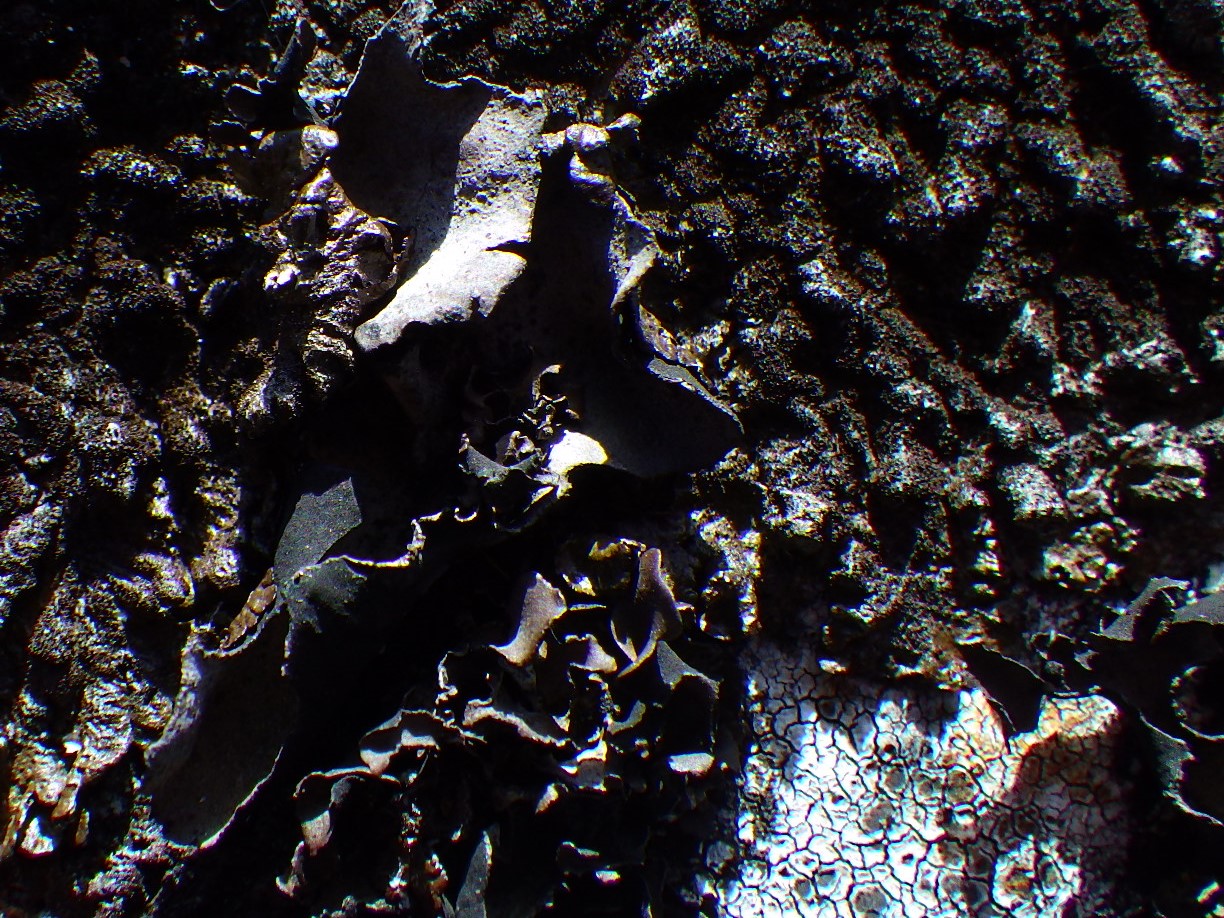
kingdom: Fungi
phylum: Ascomycota
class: Lecanoromycetes
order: Umbilicariales
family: Umbilicariaceae
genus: Umbilicaria
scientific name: Umbilicaria deusta
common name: kliddet navlelav
